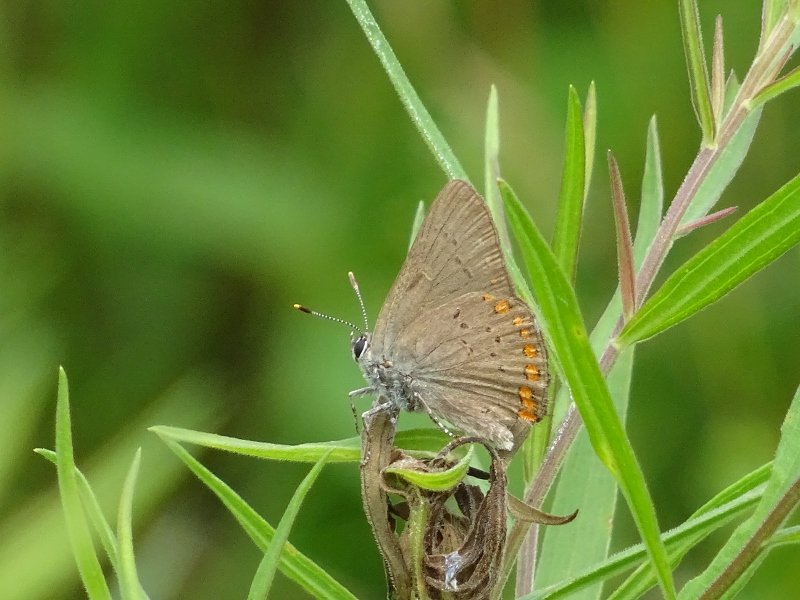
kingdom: Animalia
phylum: Arthropoda
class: Insecta
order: Lepidoptera
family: Lycaenidae
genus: Harkenclenus
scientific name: Harkenclenus titus
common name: Coral Hairstreak
